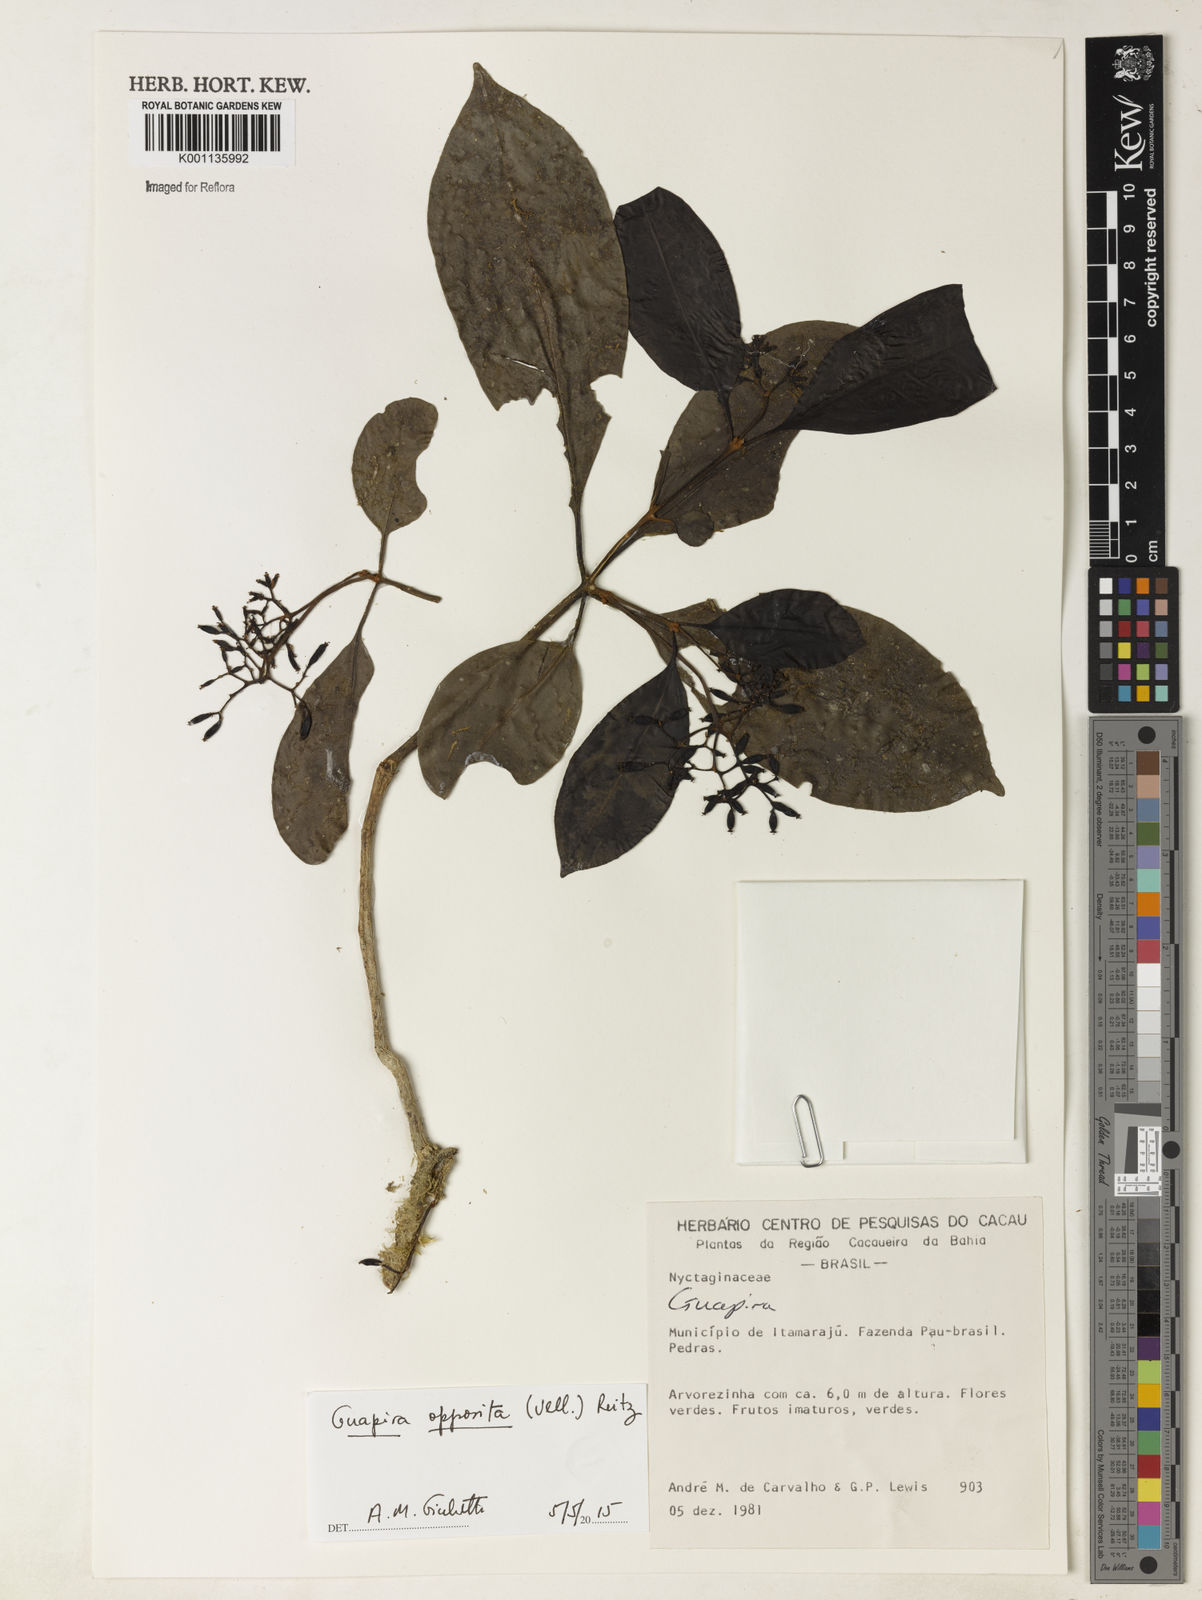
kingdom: Plantae
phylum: Tracheophyta
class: Magnoliopsida
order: Caryophyllales
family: Nyctaginaceae
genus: Guapira
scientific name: Guapira opposita
